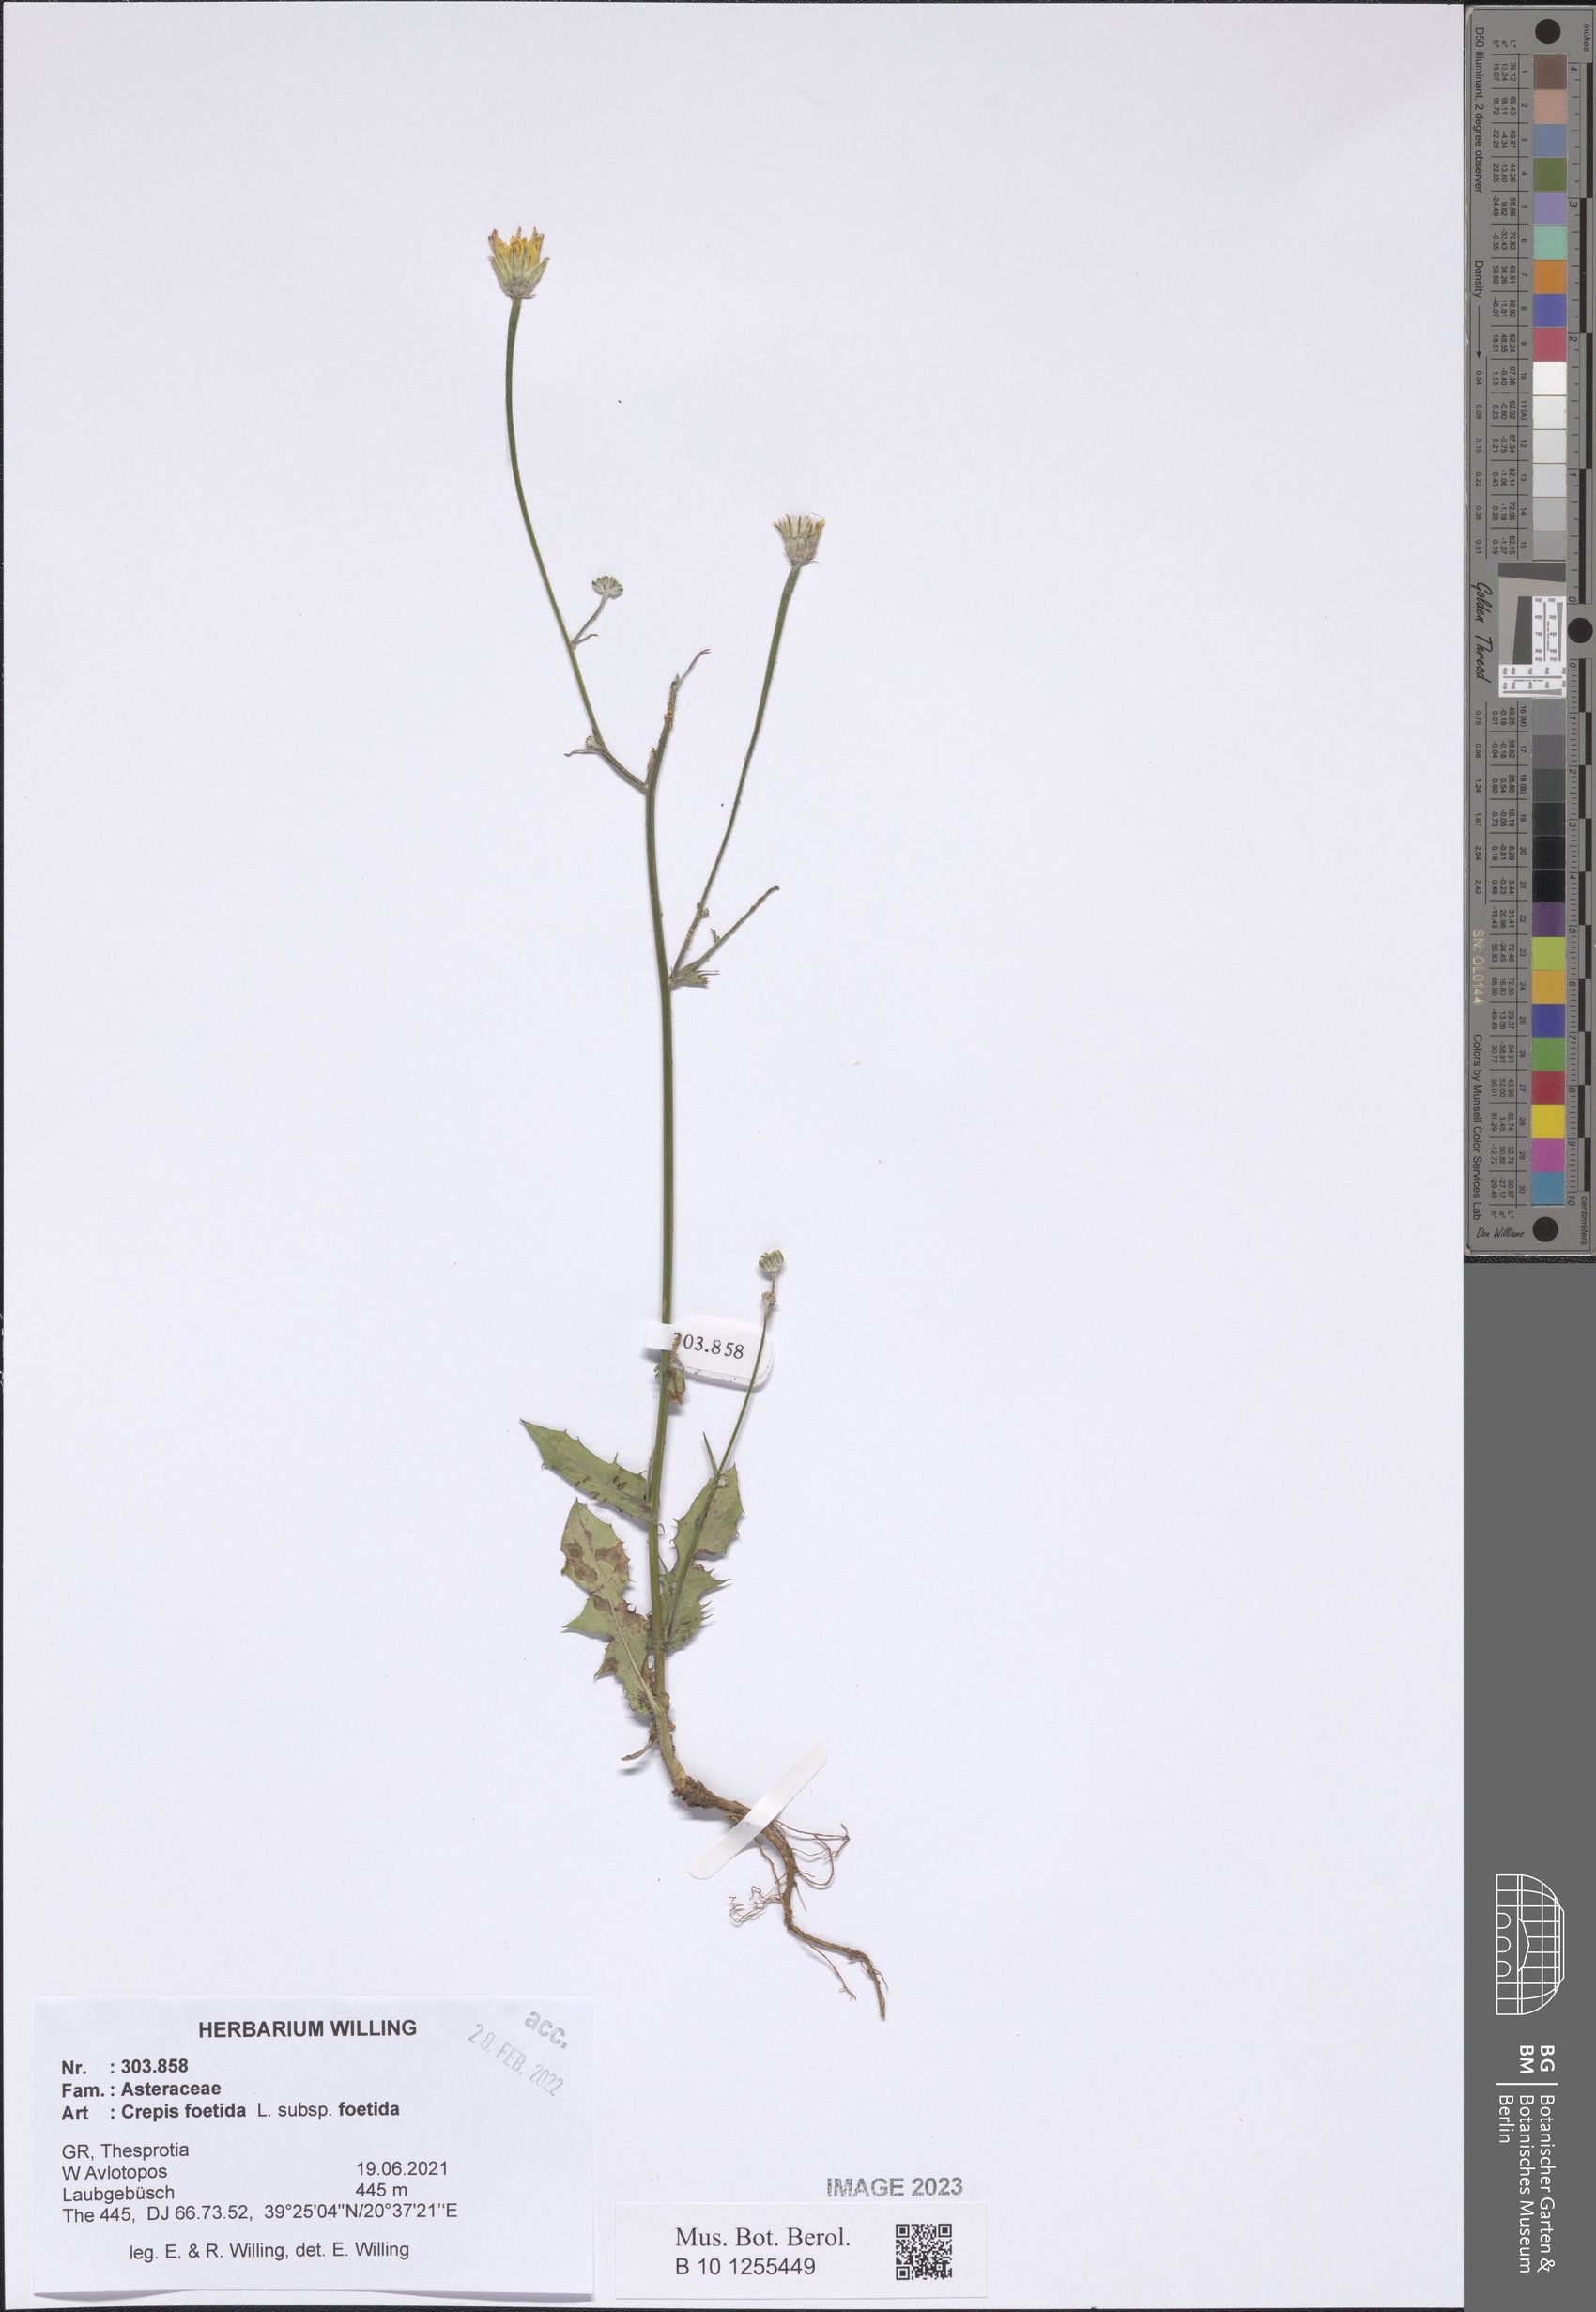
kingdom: Plantae
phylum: Tracheophyta
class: Magnoliopsida
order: Asterales
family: Asteraceae
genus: Crepis
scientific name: Crepis foetida
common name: Stinking hawk's-beard
